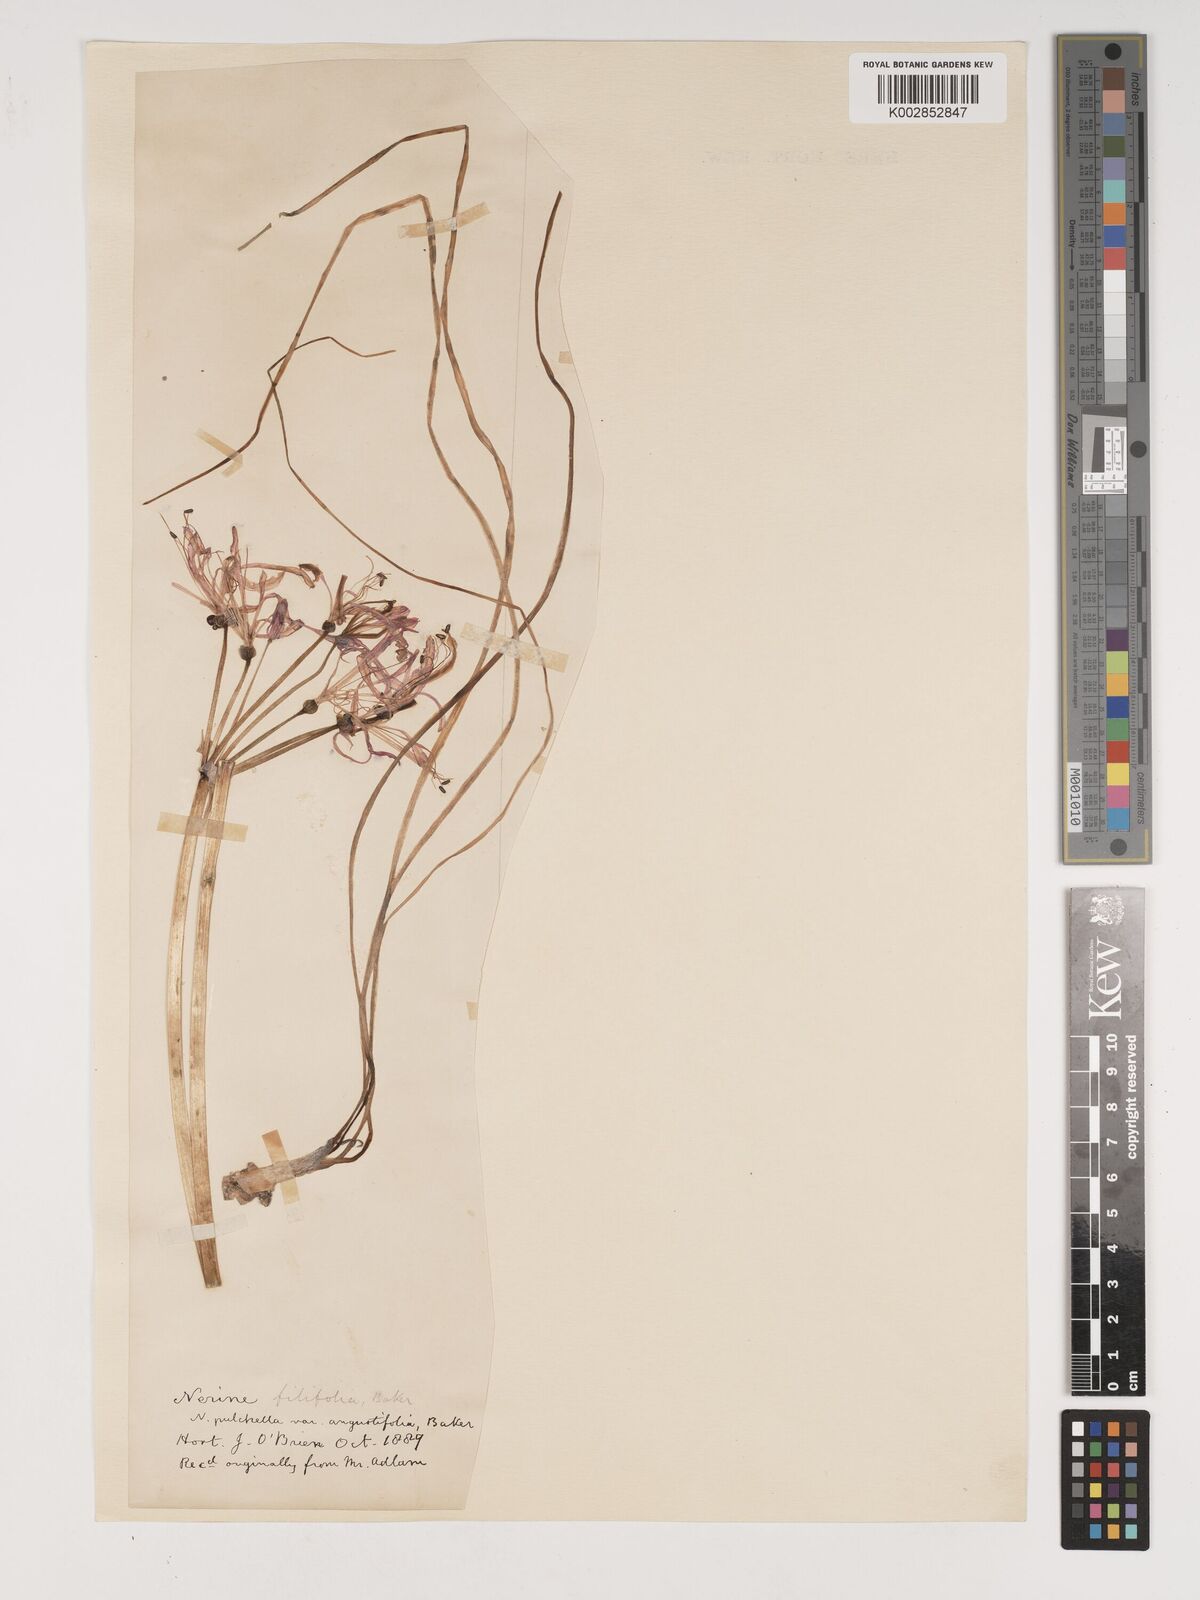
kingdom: Plantae
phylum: Tracheophyta
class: Liliopsida
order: Asparagales
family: Amaryllidaceae
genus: Nerine
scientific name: Nerine
